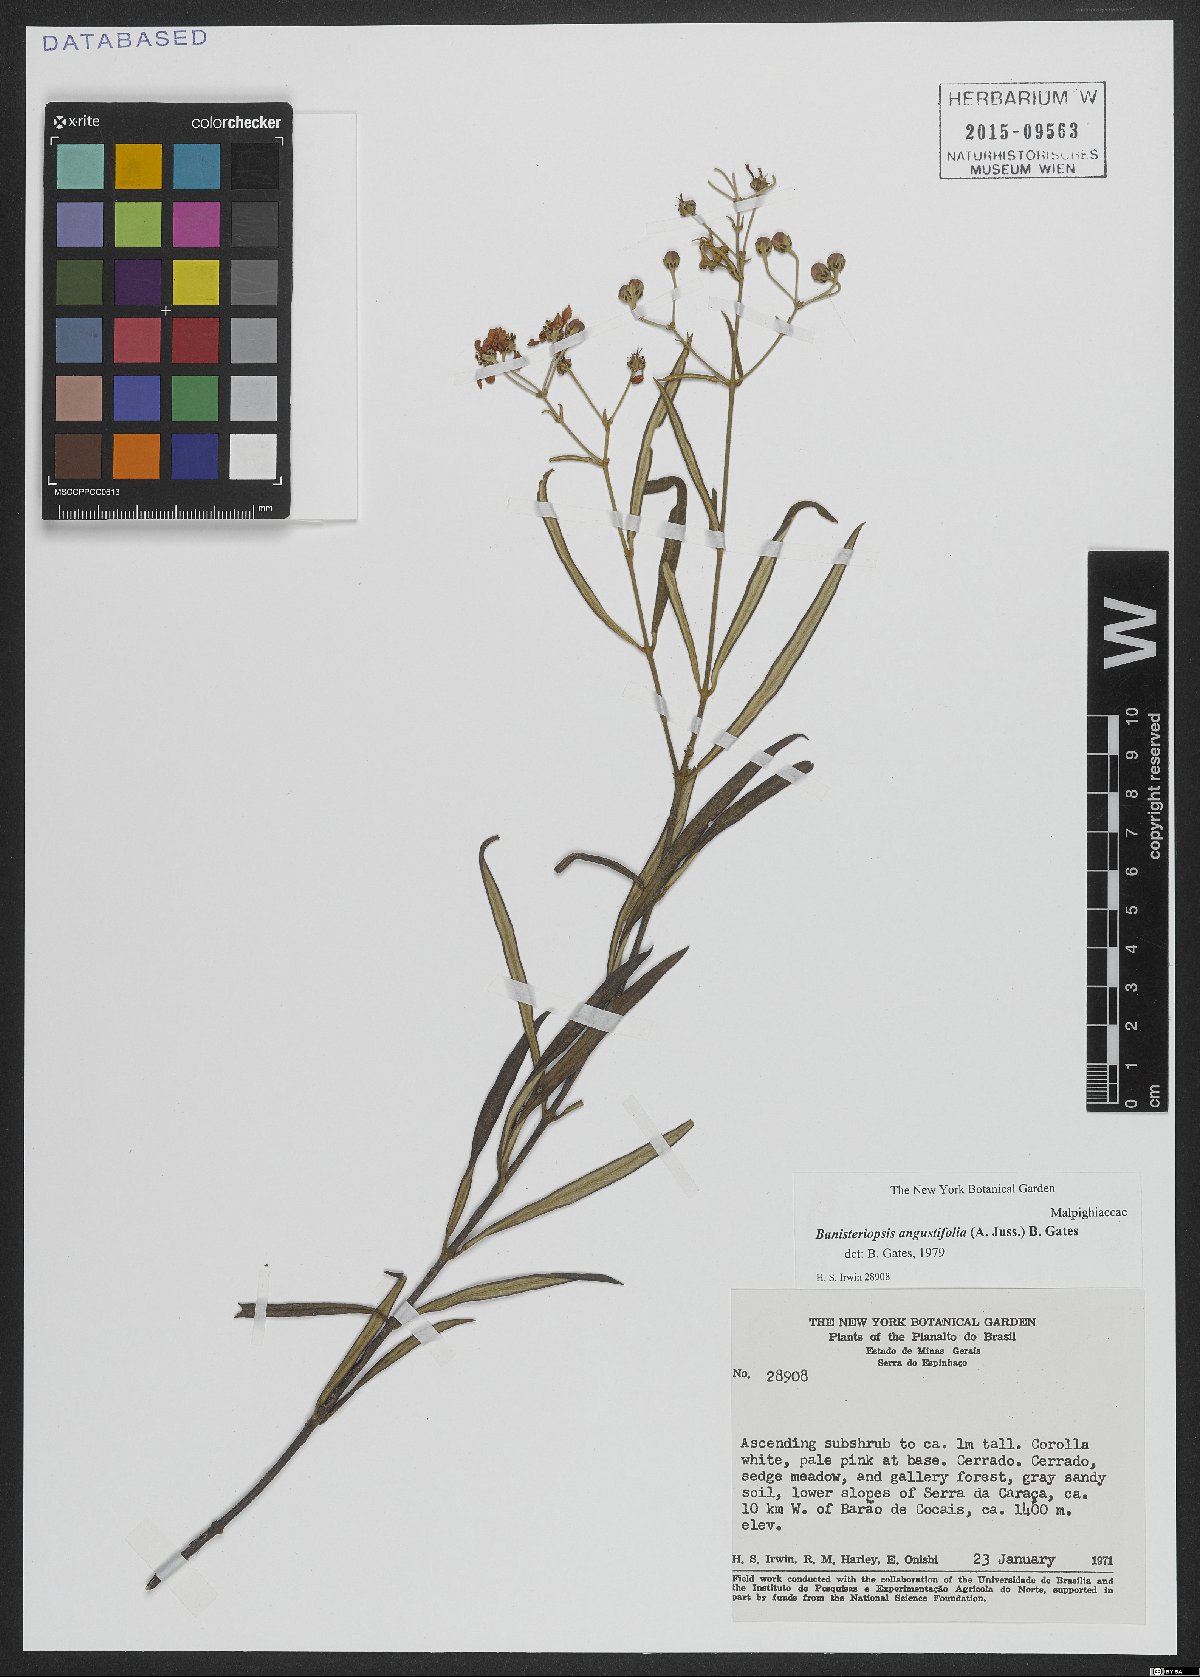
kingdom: Plantae
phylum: Tracheophyta
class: Magnoliopsida
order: Malpighiales
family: Malpighiaceae
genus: Banisteriopsis
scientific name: Banisteriopsis angustifolia
